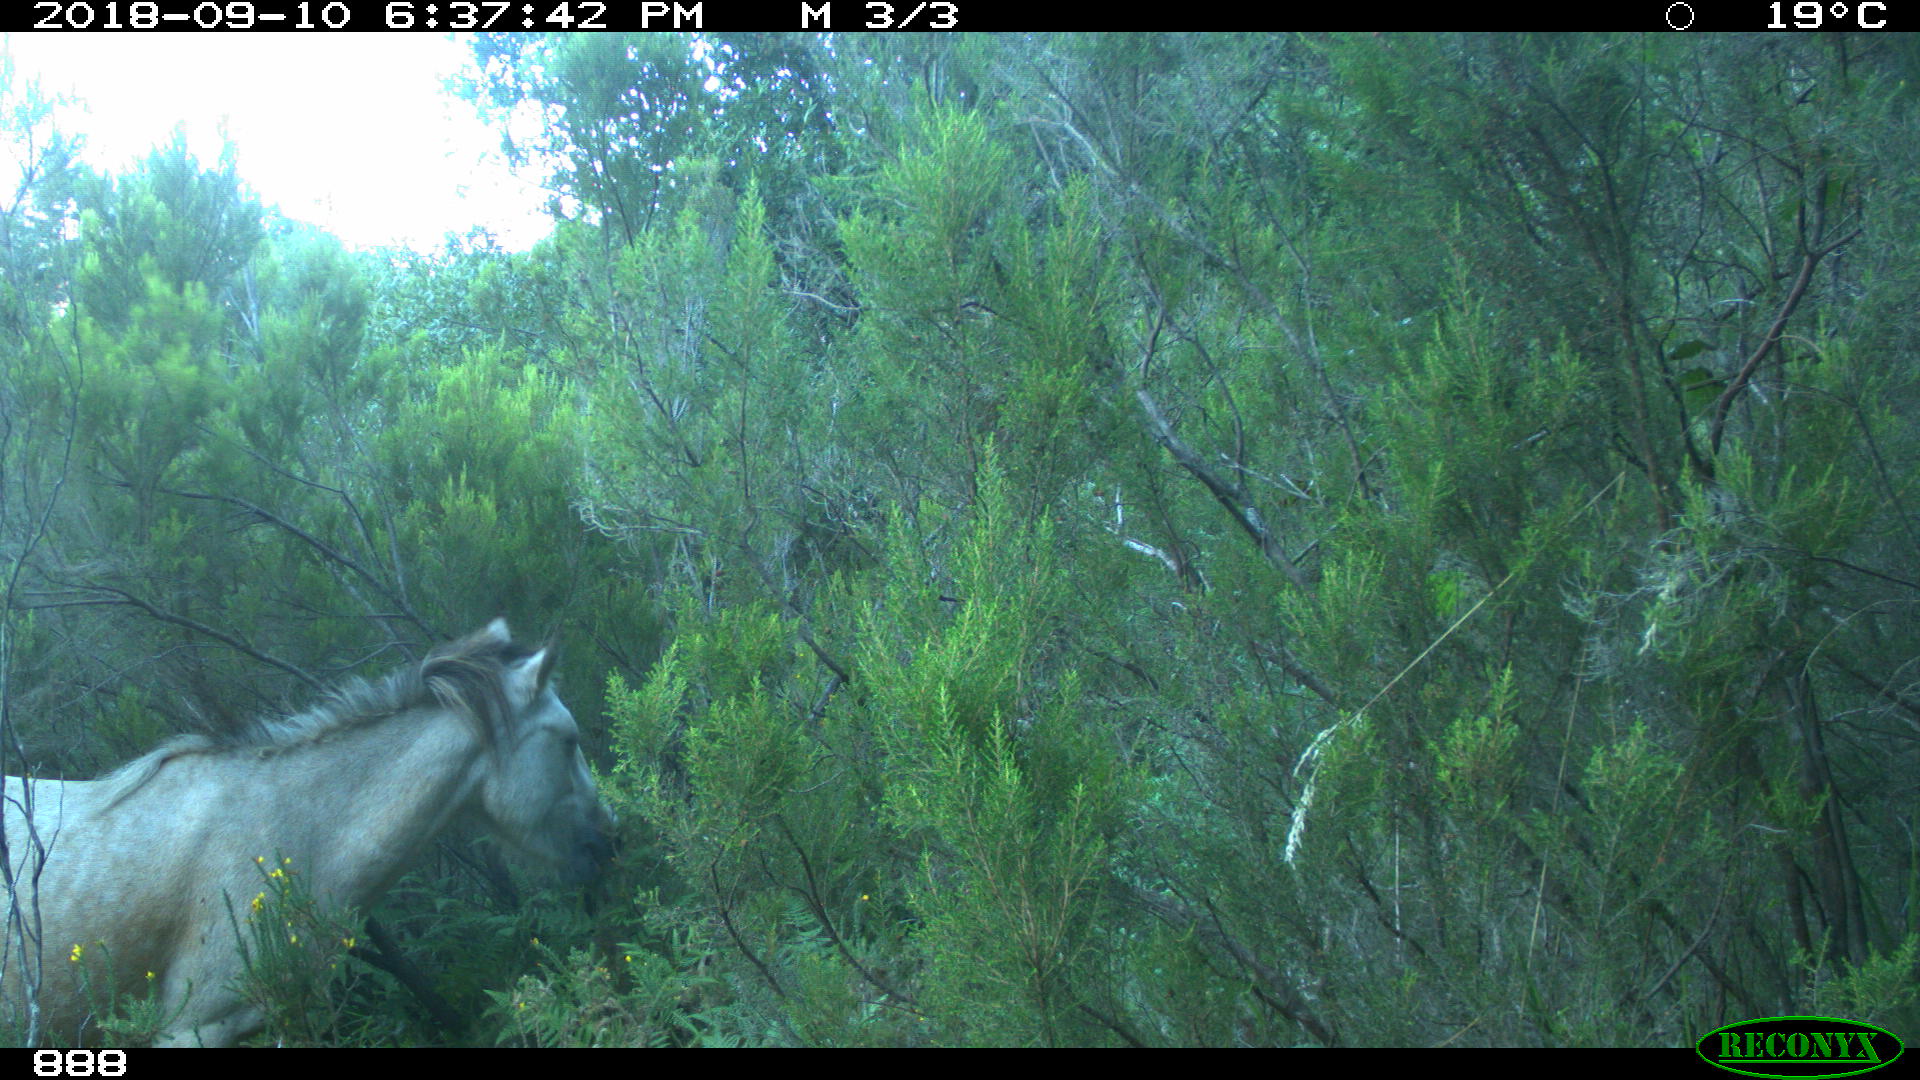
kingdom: Animalia
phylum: Chordata
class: Mammalia
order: Perissodactyla
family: Equidae
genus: Equus
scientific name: Equus caballus
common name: Horse
